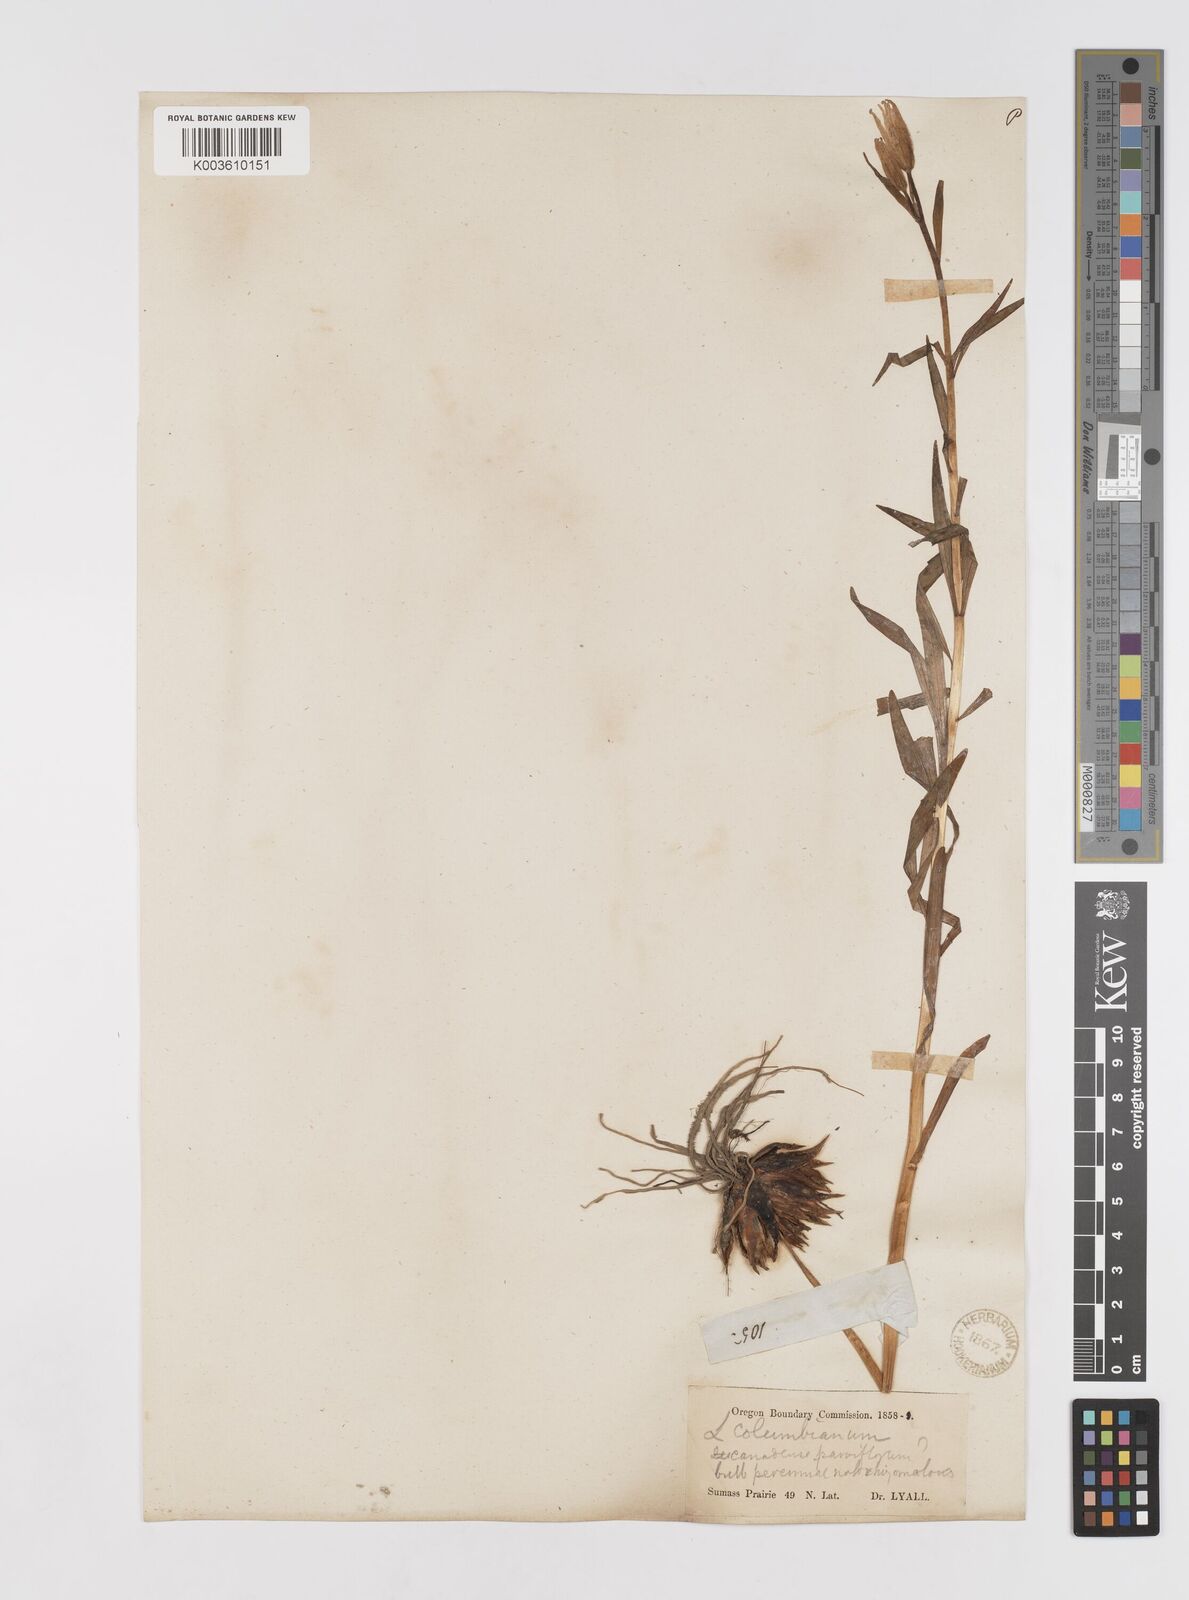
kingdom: Plantae
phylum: Tracheophyta
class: Liliopsida
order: Liliales
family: Liliaceae
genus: Lilium
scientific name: Lilium columbianum
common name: Columbia lily
